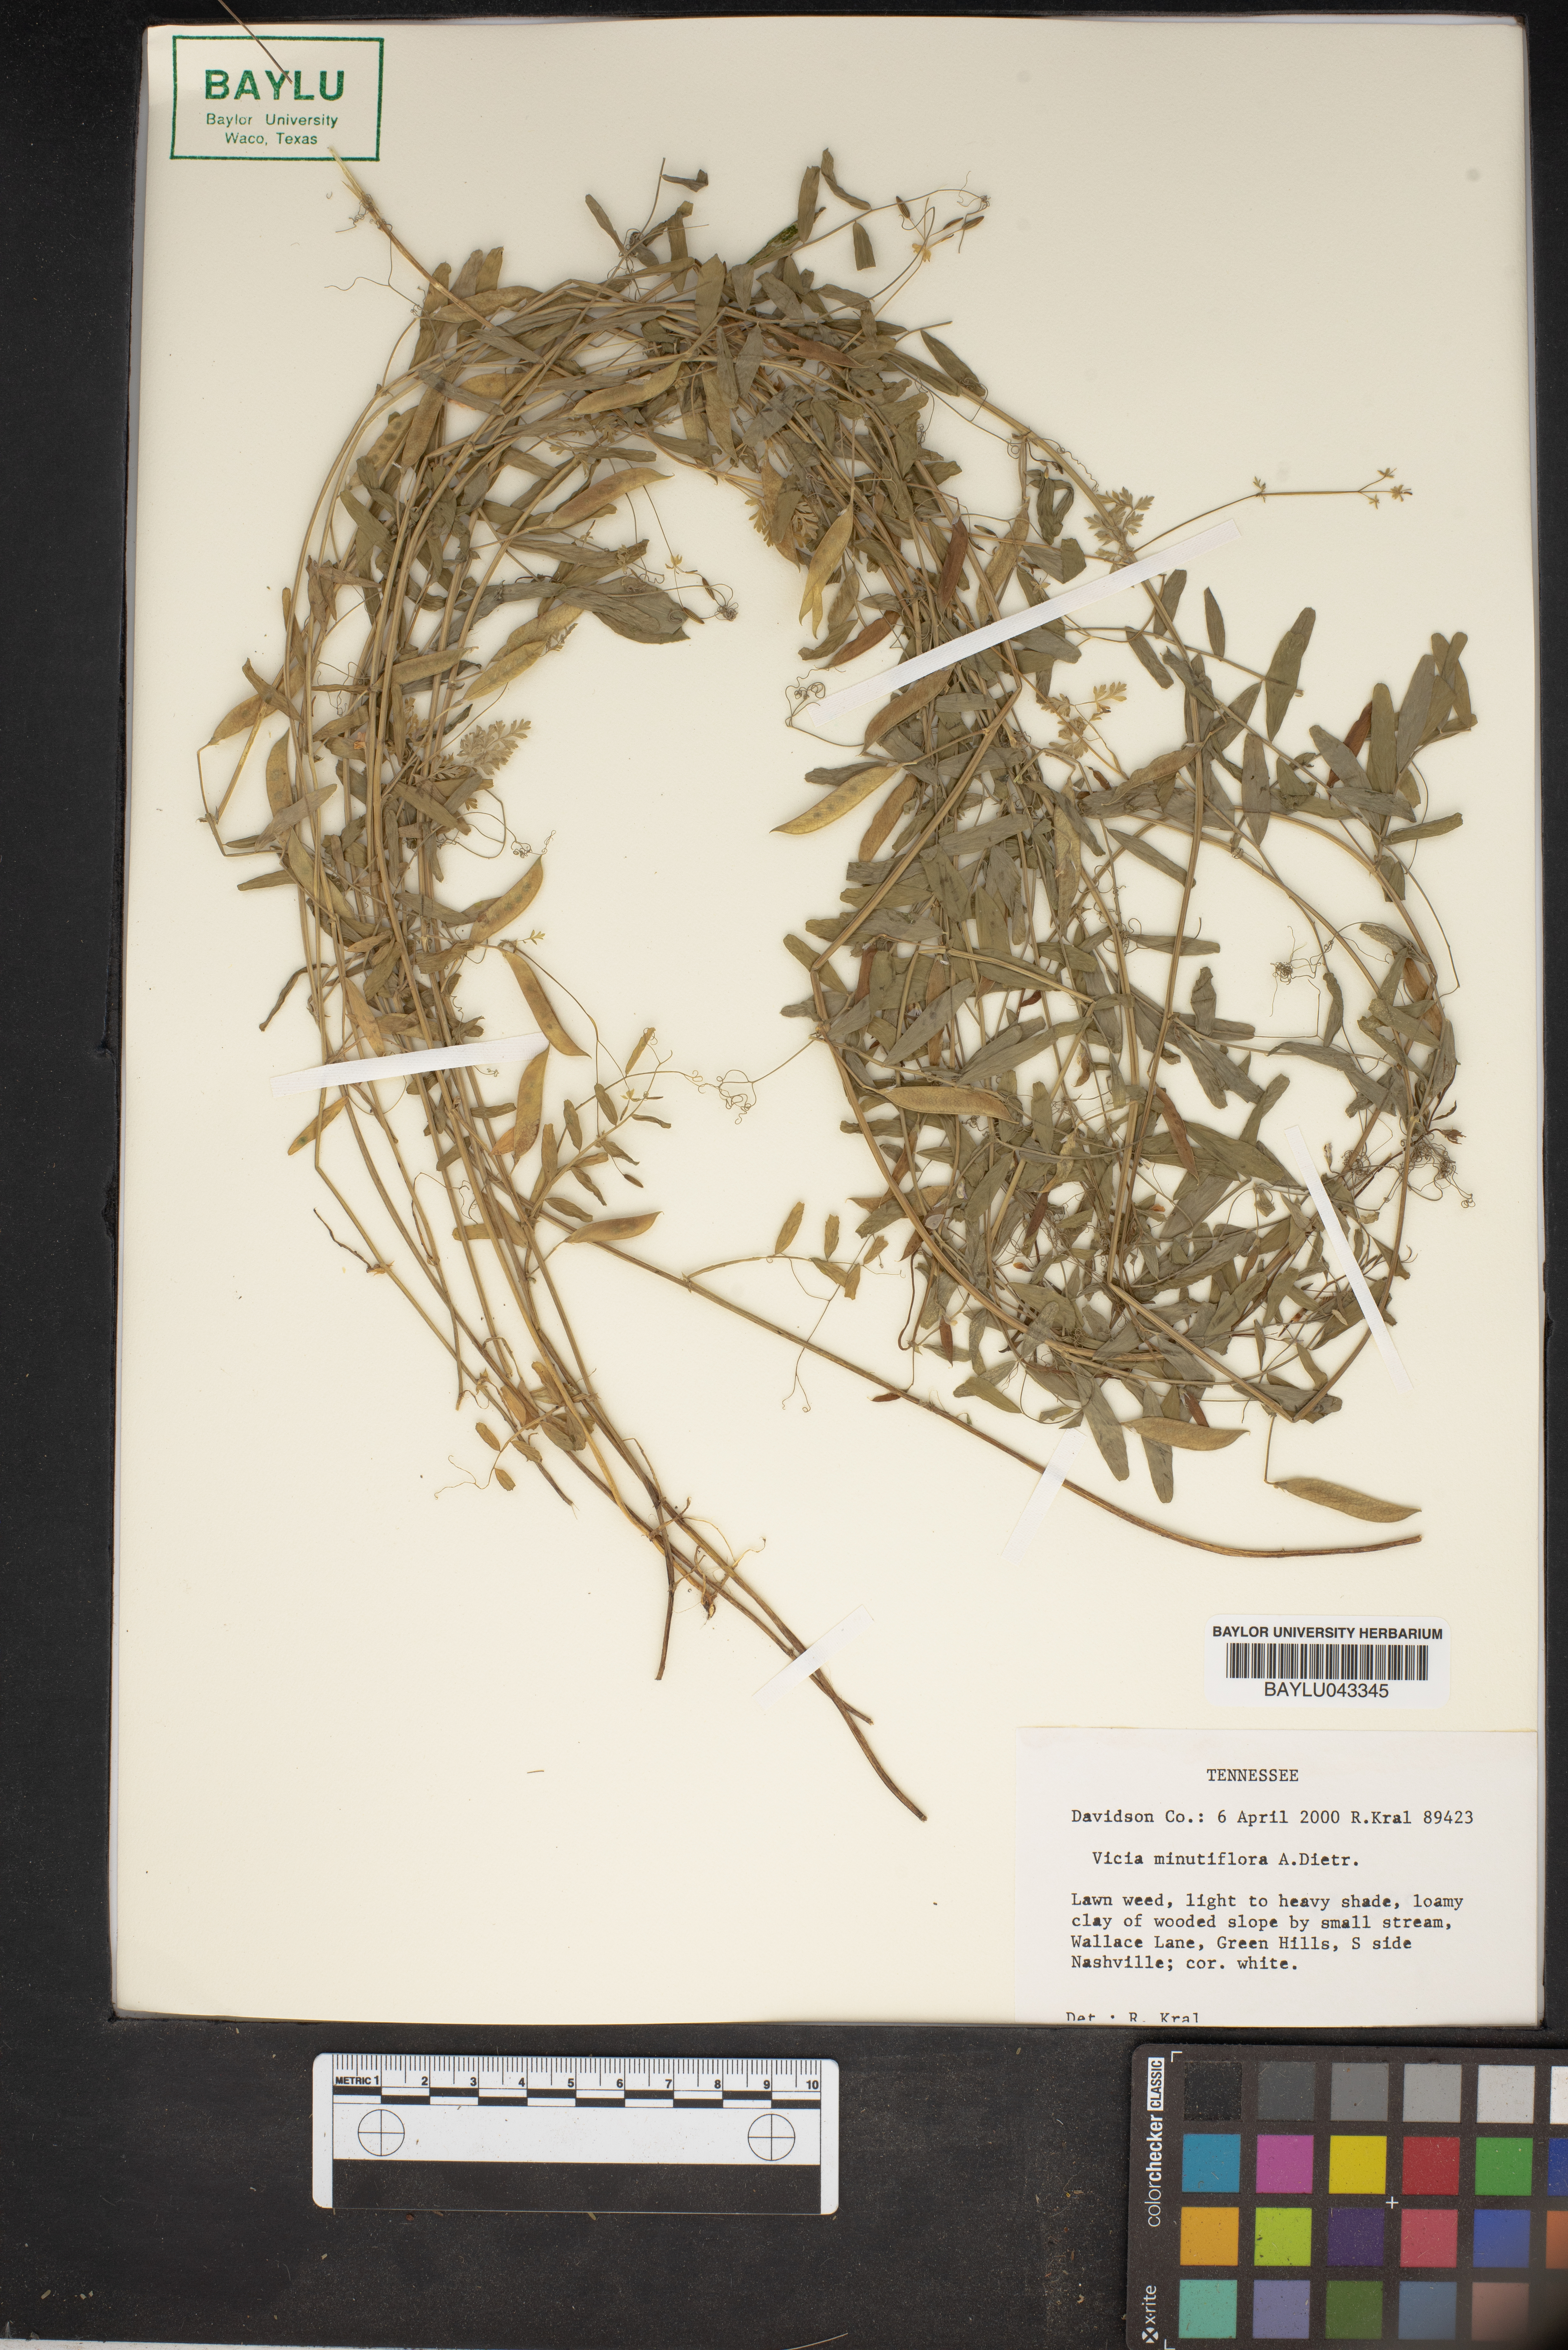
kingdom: Plantae
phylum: Tracheophyta
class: Magnoliopsida
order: Fabales
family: Fabaceae
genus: Vicia
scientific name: Vicia minutiflora
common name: Pygmy-flower vetch
